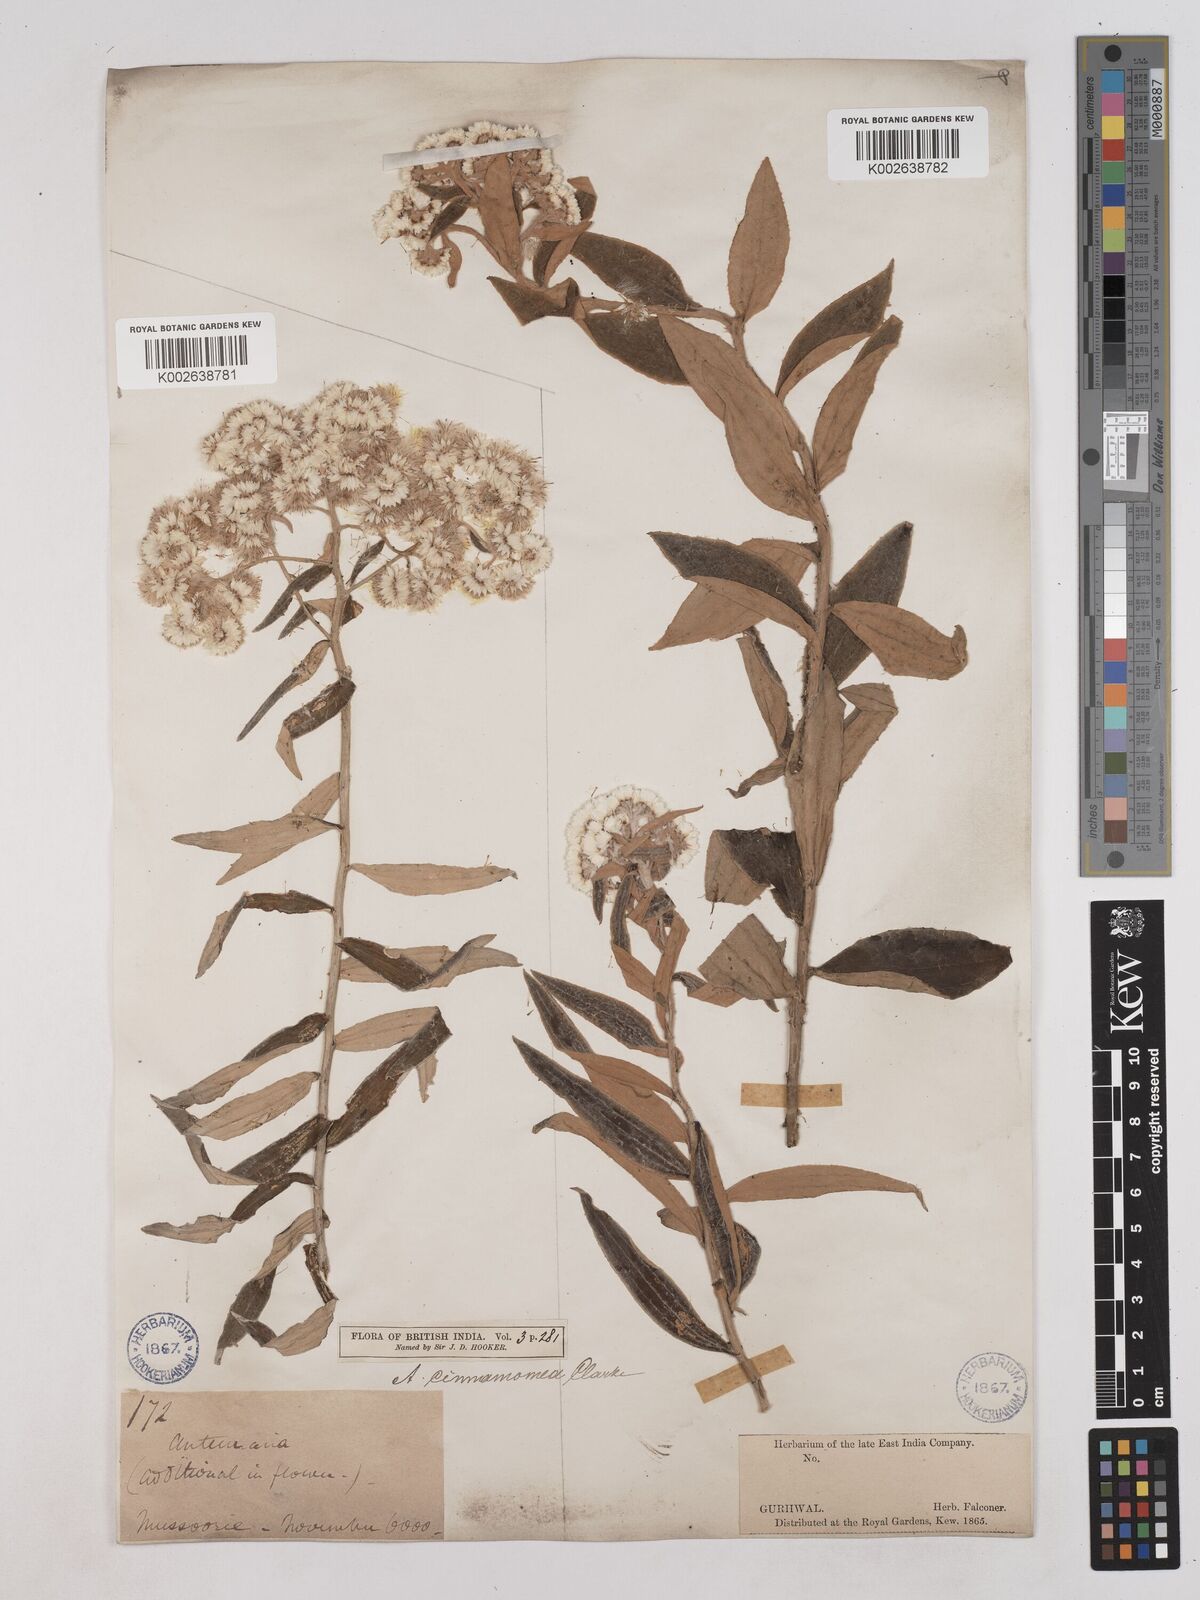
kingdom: Plantae
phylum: Tracheophyta
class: Magnoliopsida
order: Asterales
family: Asteraceae
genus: Anaphalis
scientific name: Anaphalis marcescens
